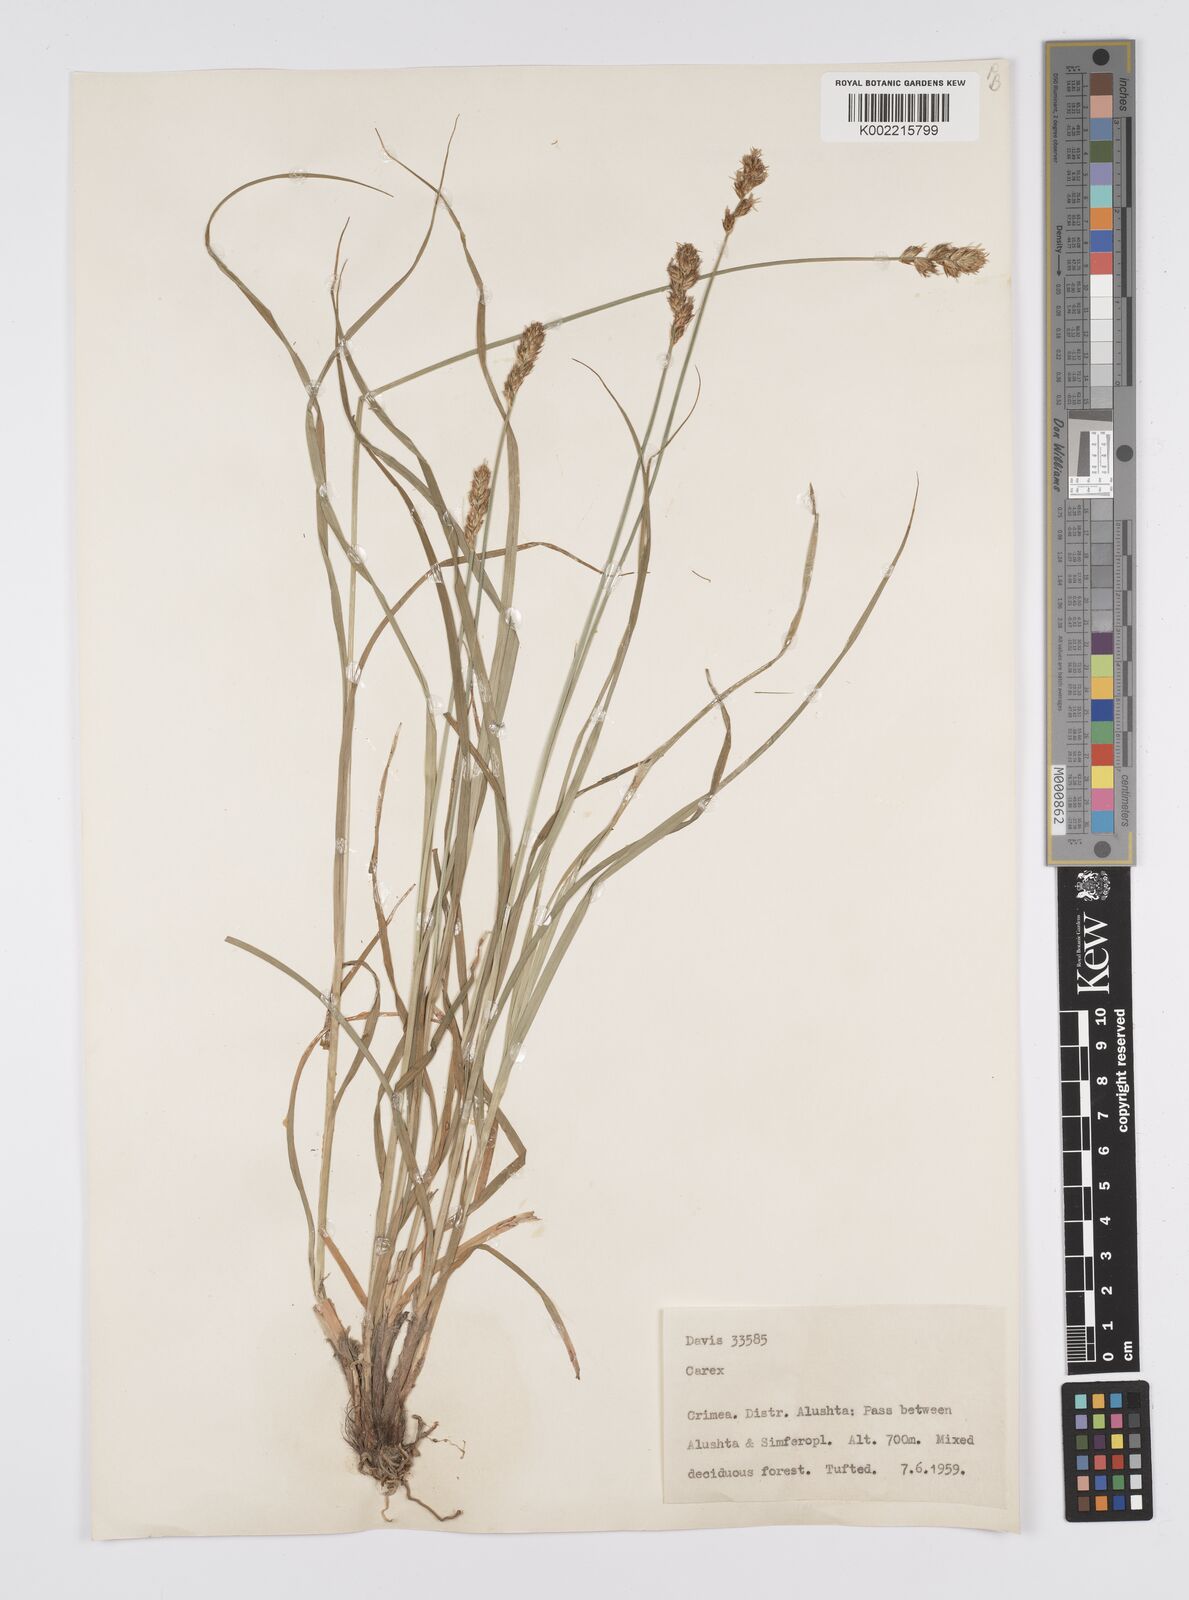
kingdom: Plantae
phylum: Tracheophyta
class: Liliopsida
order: Poales
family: Cyperaceae
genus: Carex
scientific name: Carex
